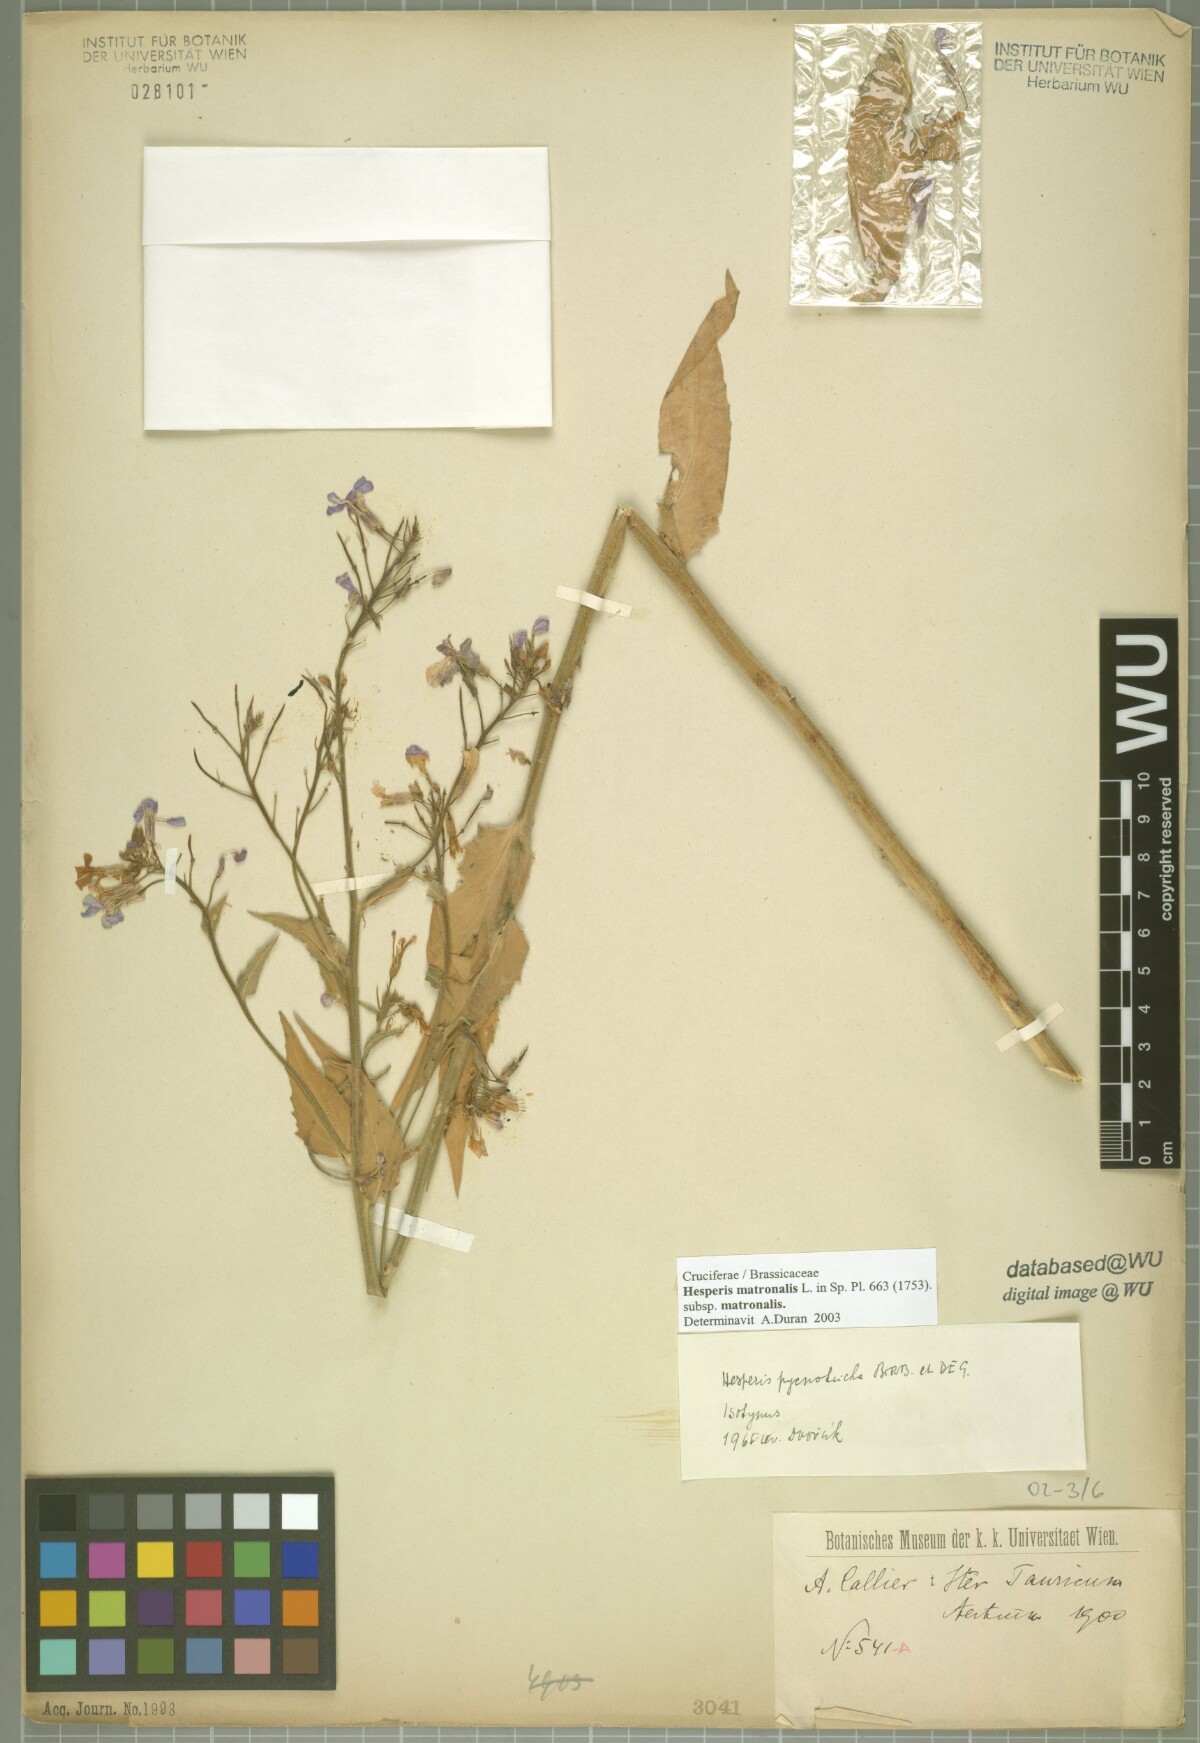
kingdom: Plantae
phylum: Tracheophyta
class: Magnoliopsida
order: Brassicales
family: Brassicaceae
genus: Hesperis
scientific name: Hesperis pycnotricha
